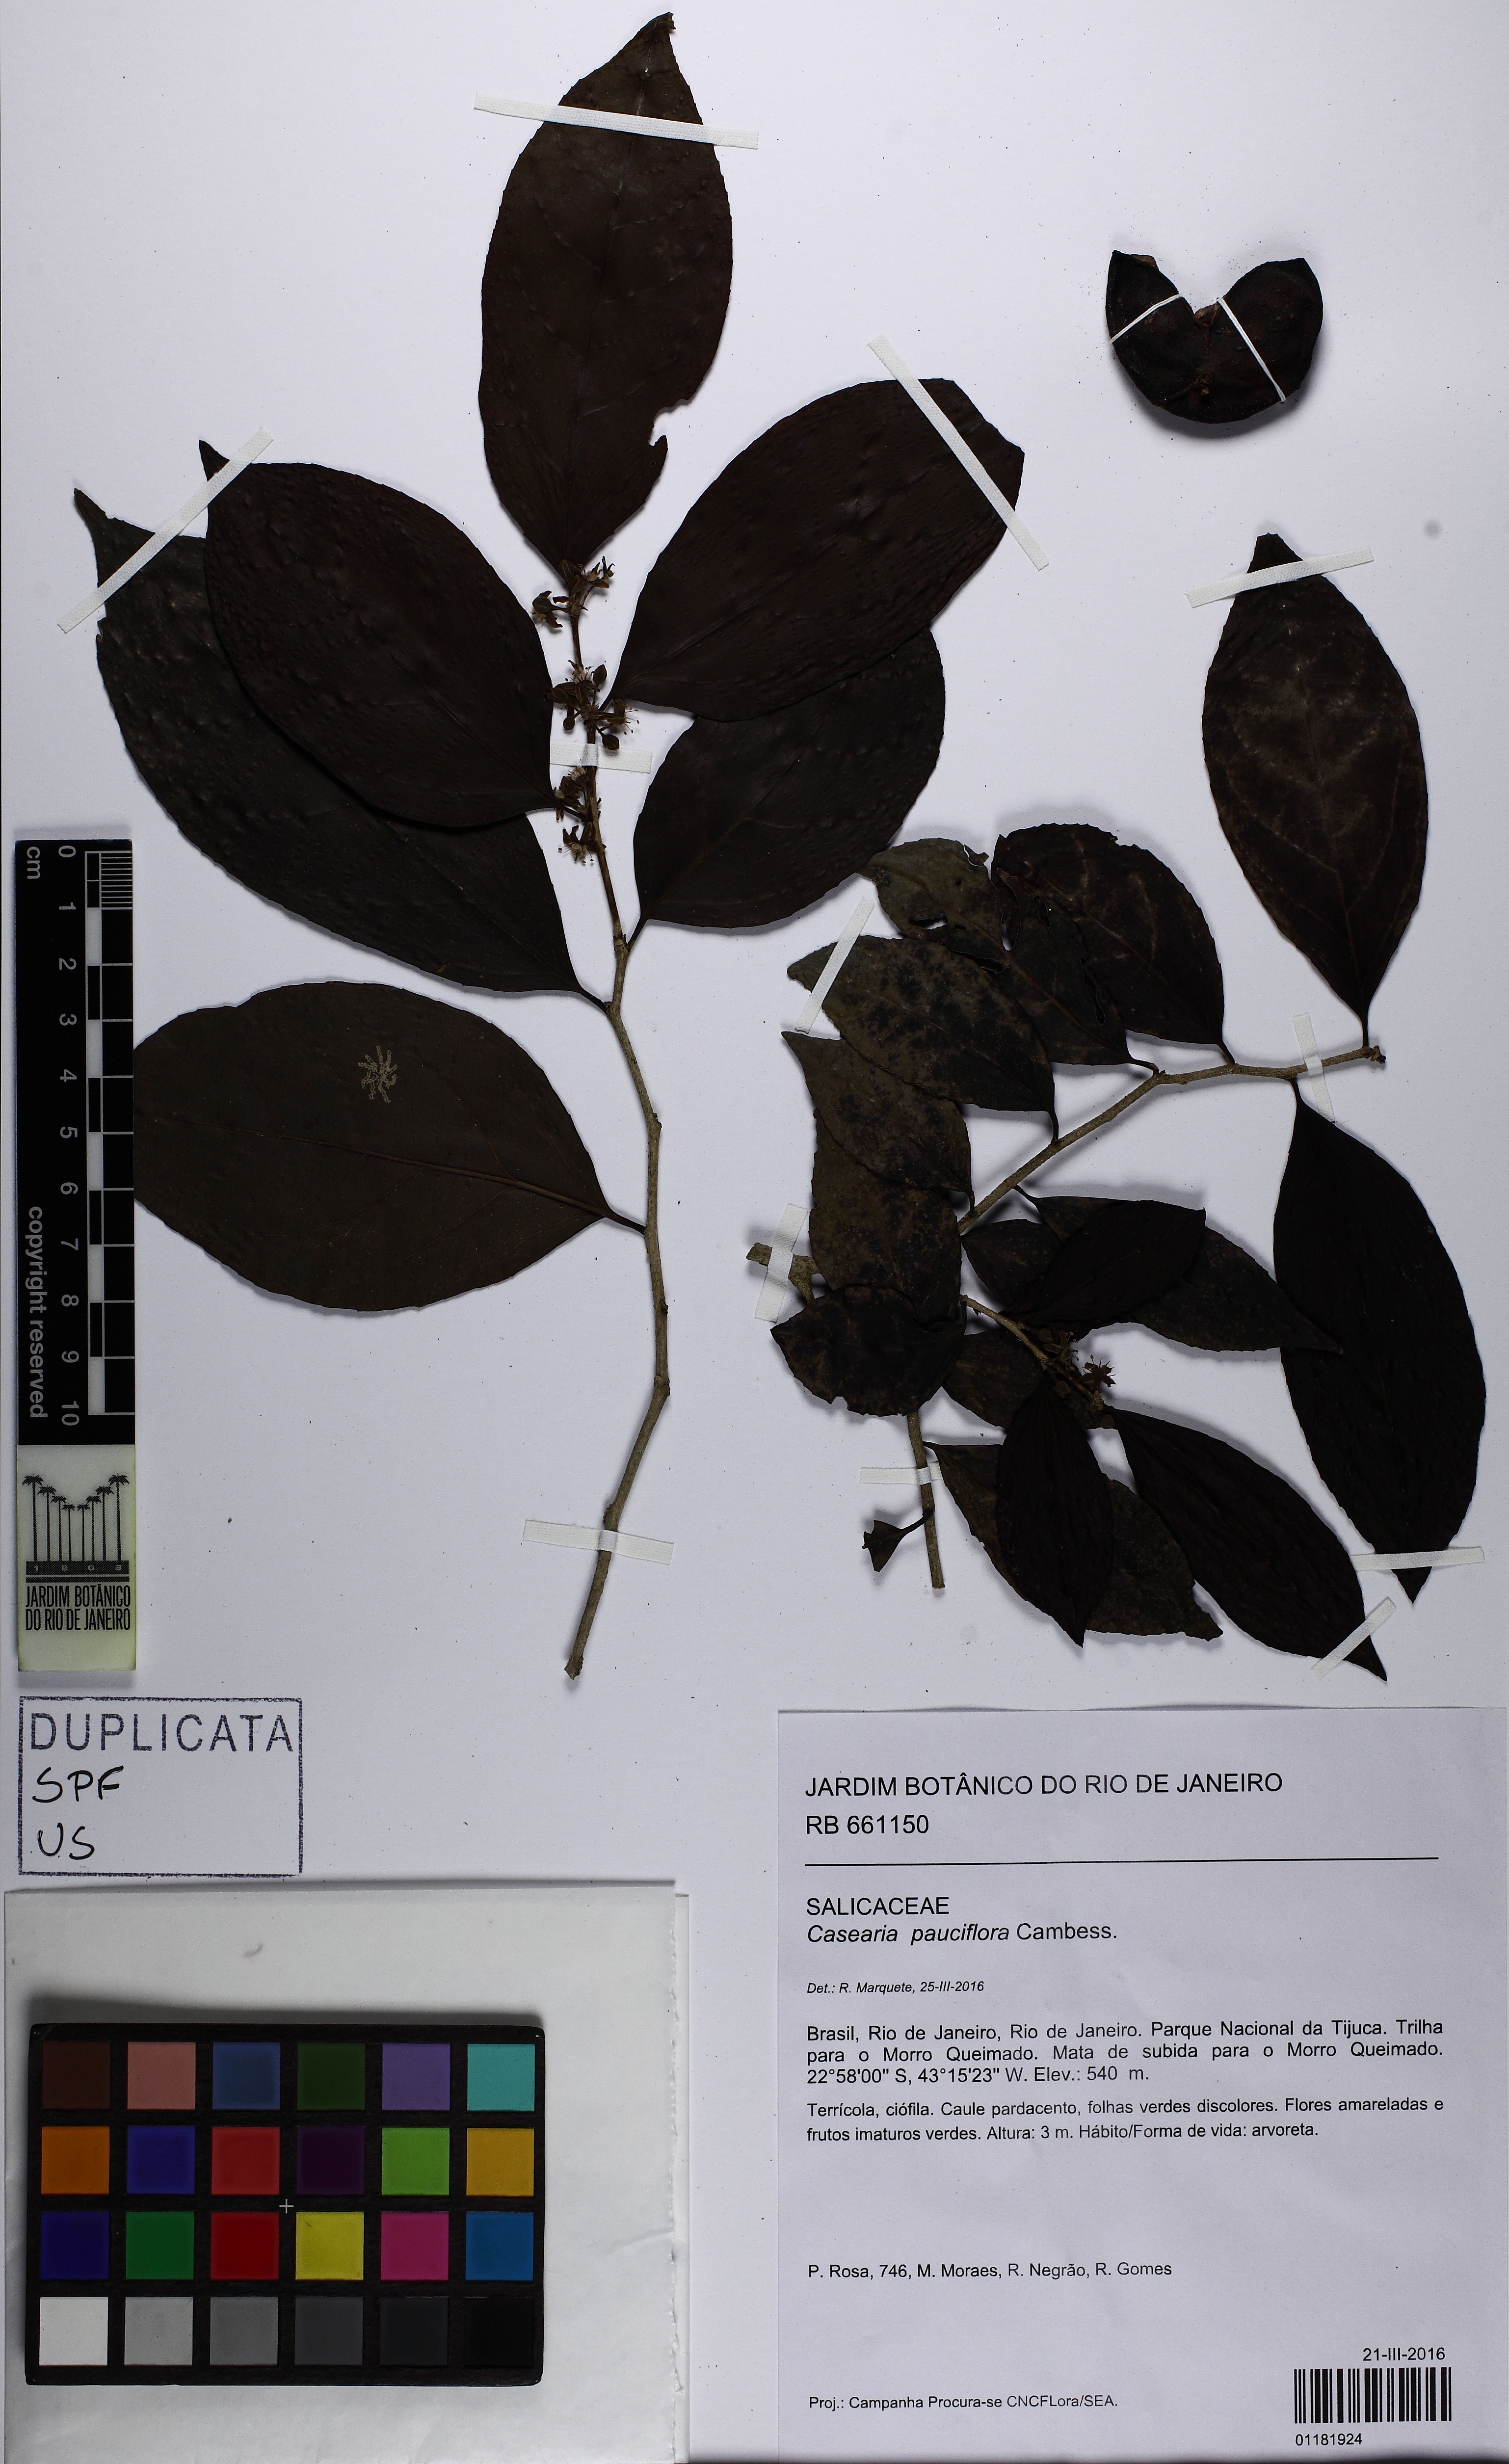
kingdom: Plantae
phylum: Tracheophyta
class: Magnoliopsida
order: Malpighiales
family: Salicaceae
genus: Casearia
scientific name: Casearia pauciflora
